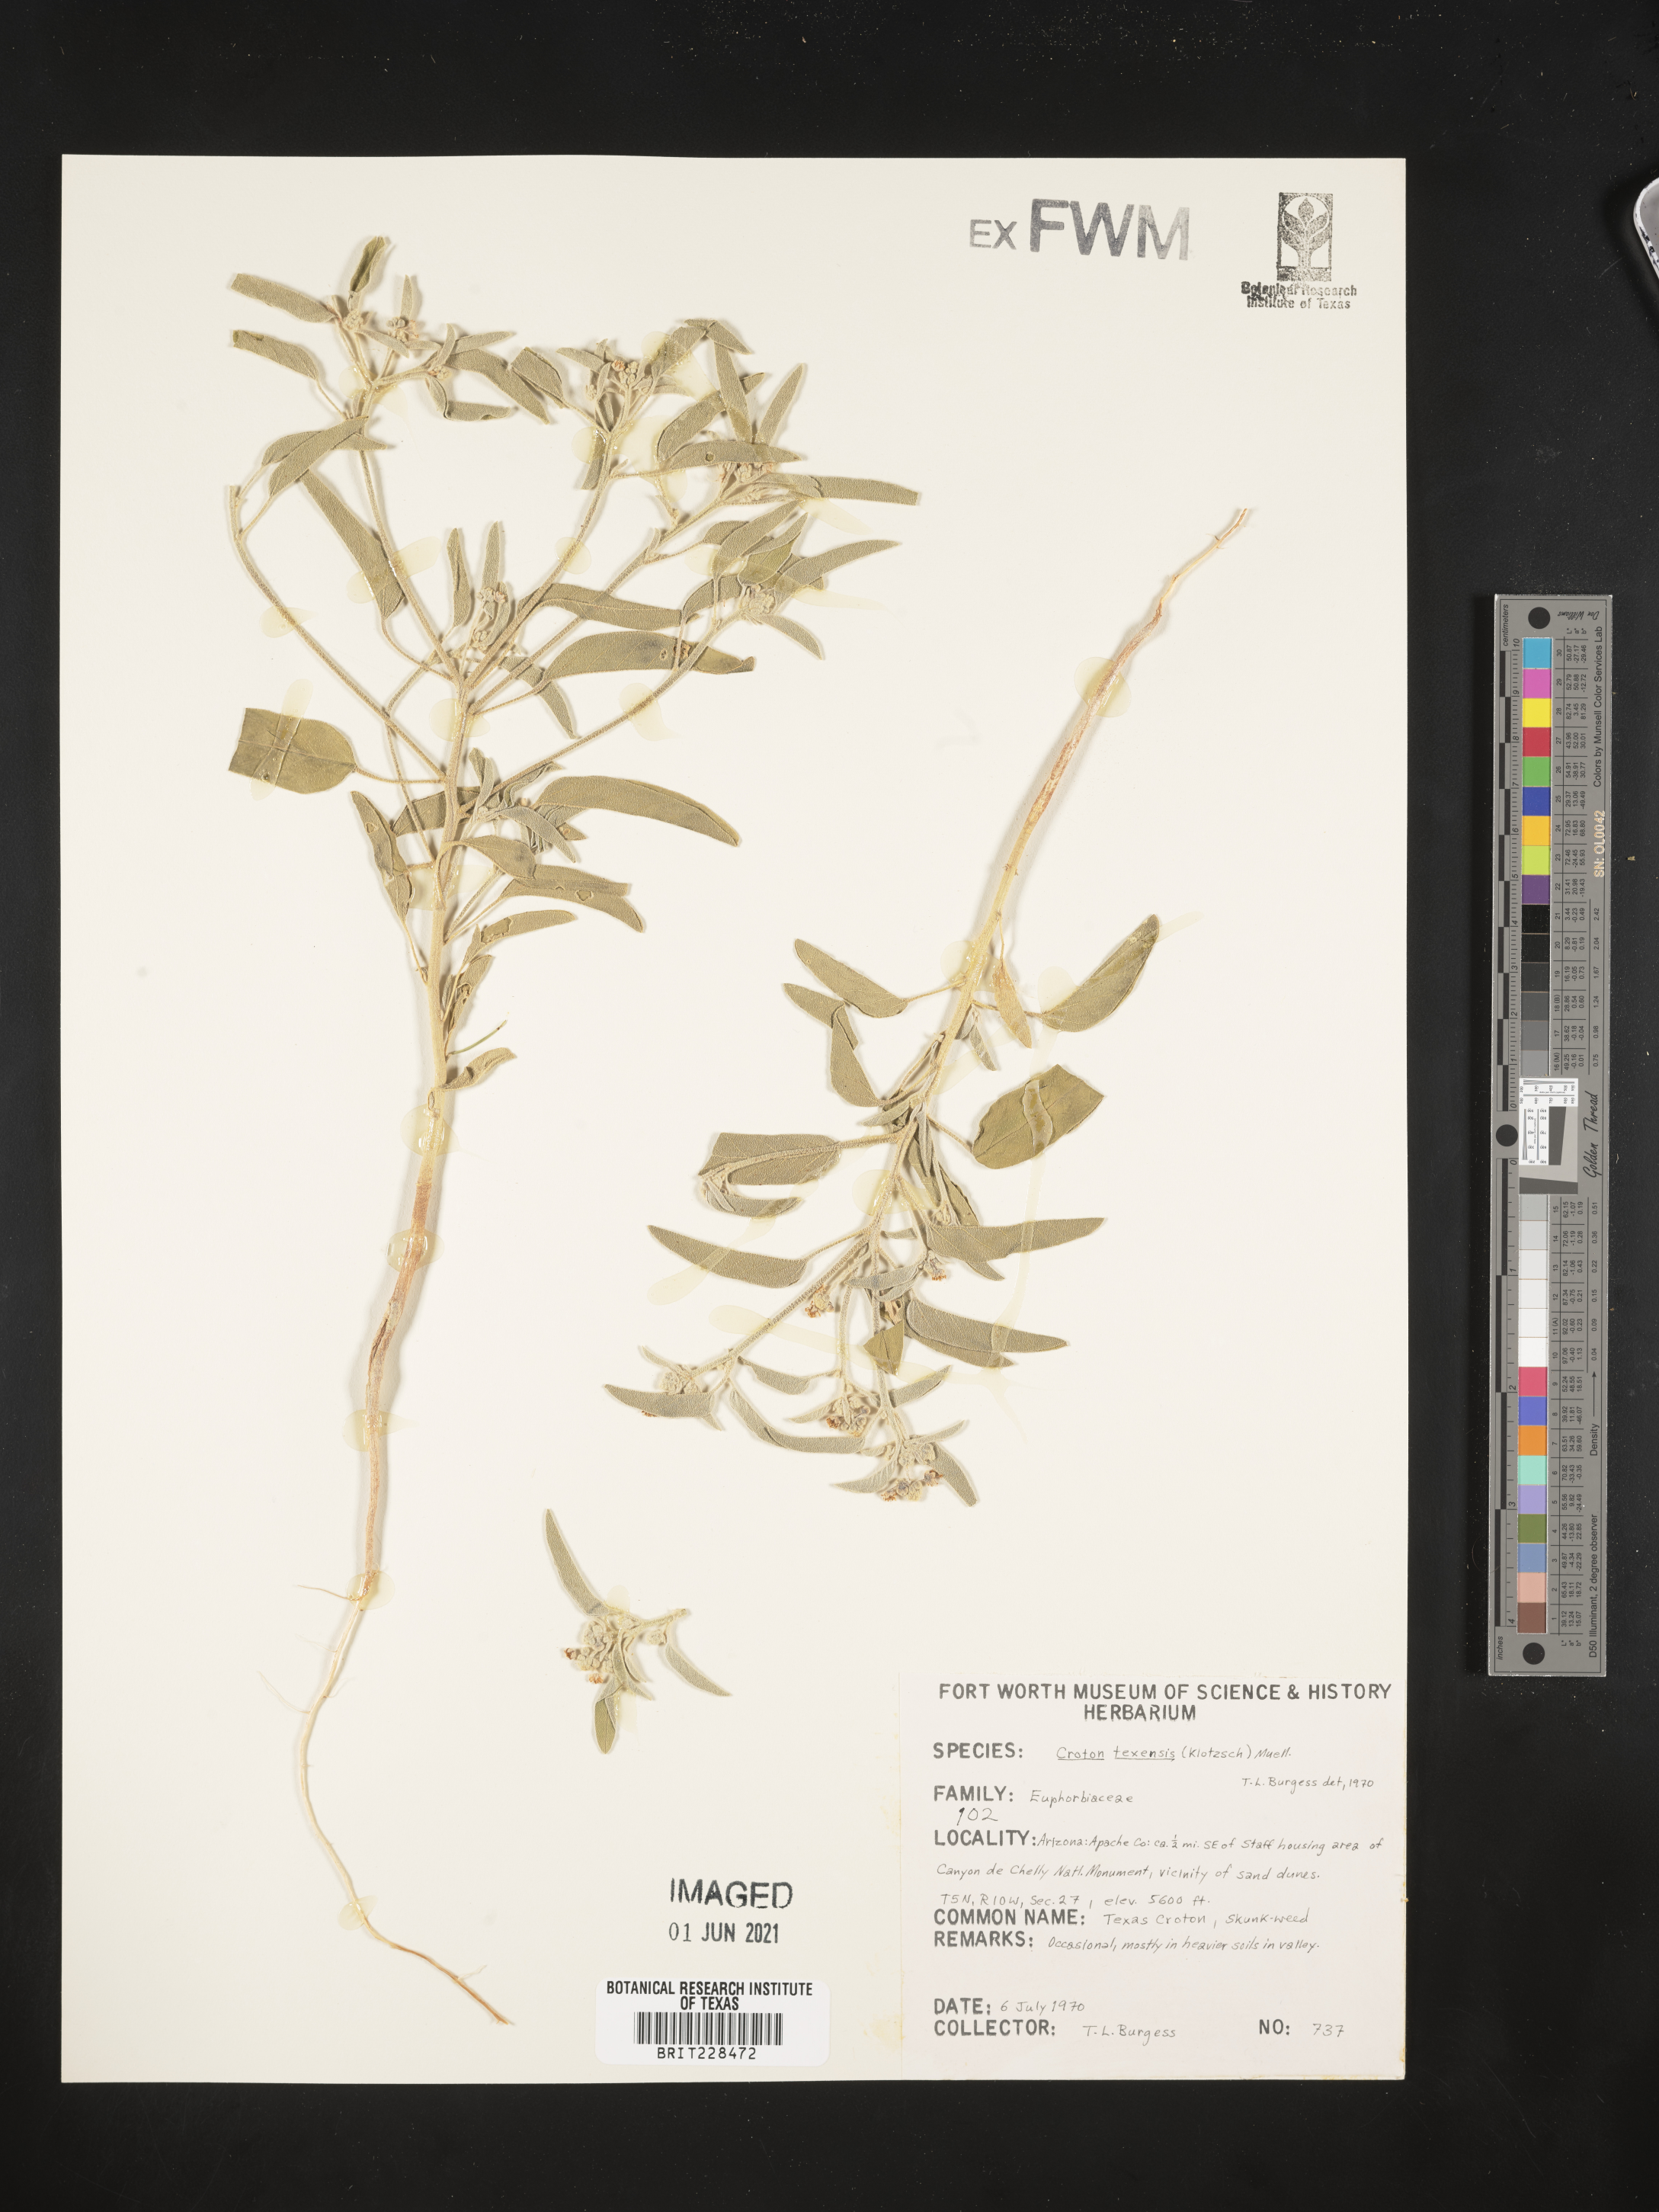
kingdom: Plantae
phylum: Tracheophyta
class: Magnoliopsida
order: Malpighiales
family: Euphorbiaceae
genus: Croton
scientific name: Croton texensis
